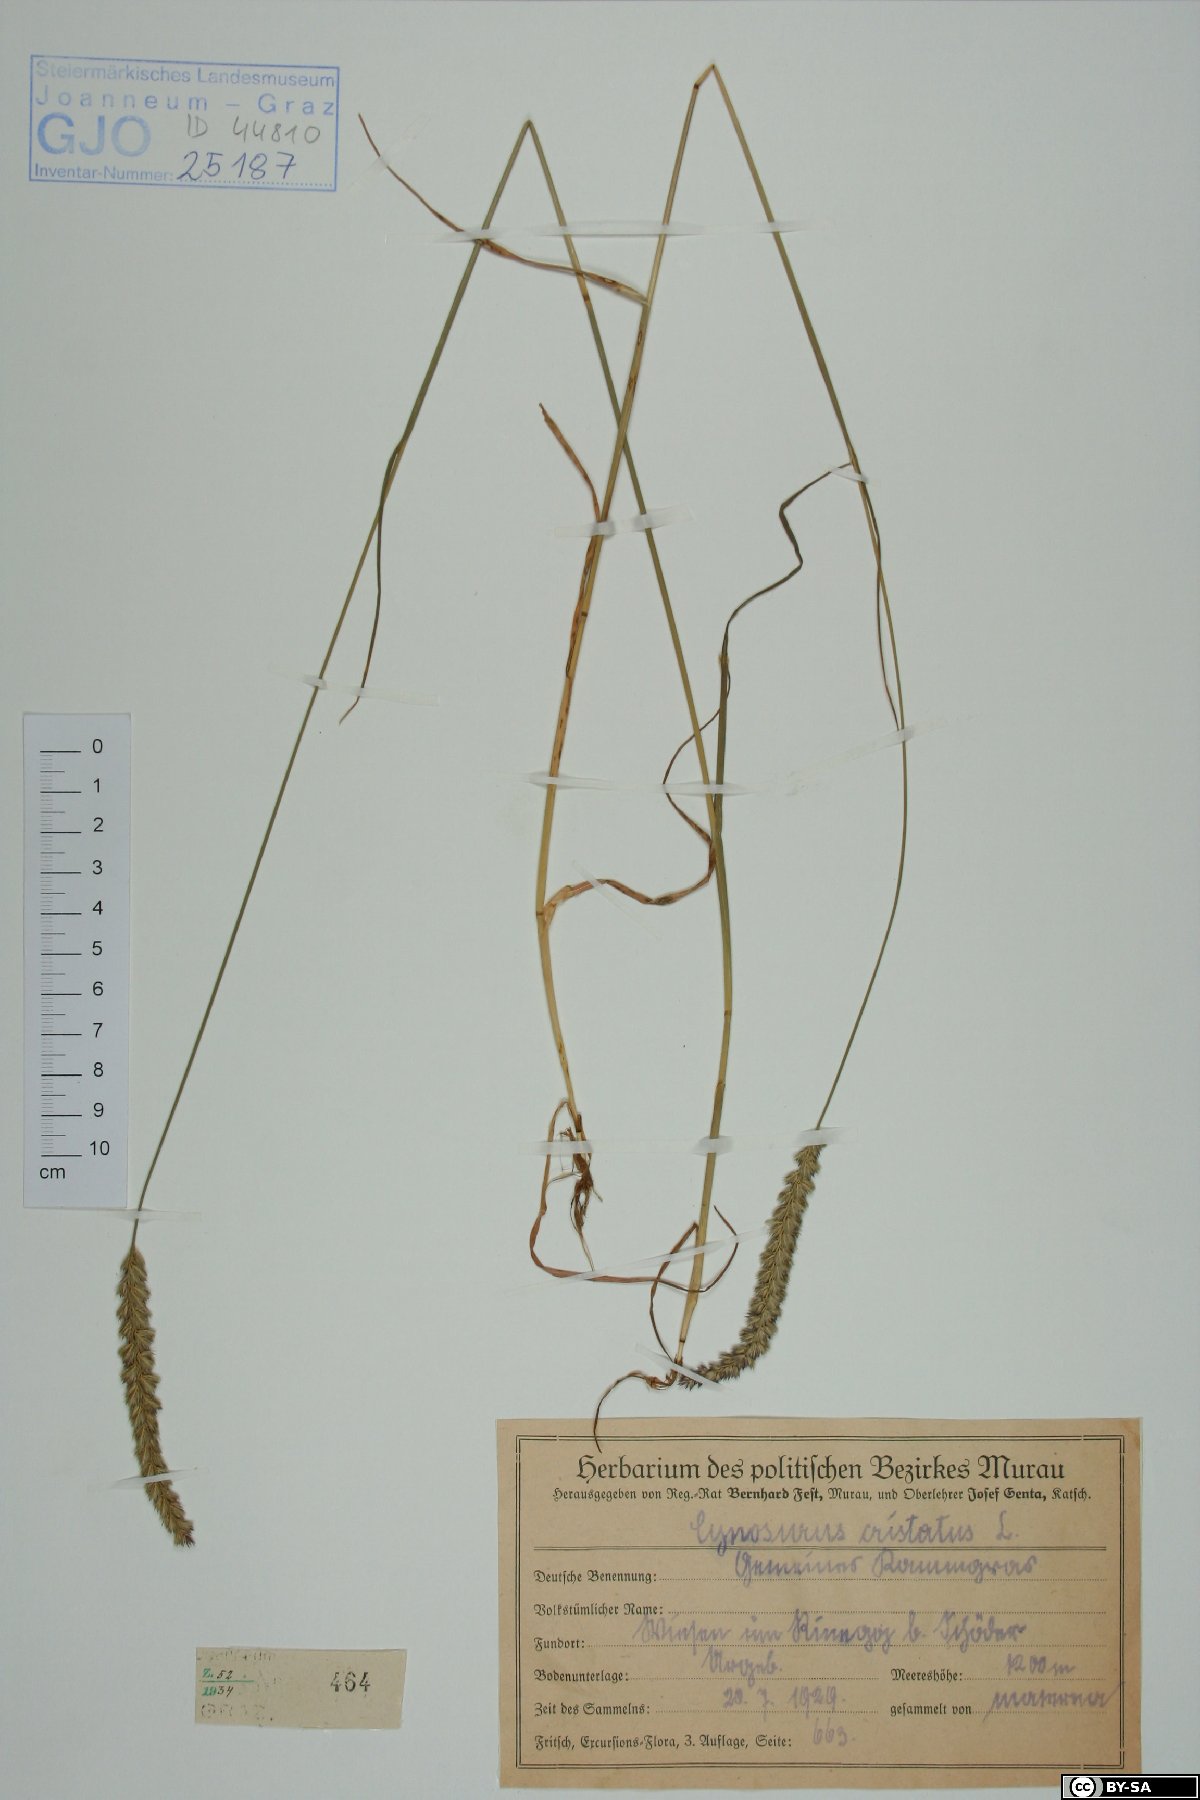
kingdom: Plantae
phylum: Tracheophyta
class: Liliopsida
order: Poales
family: Poaceae
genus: Cynosurus
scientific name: Cynosurus cristatus
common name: Crested dog's-tail
